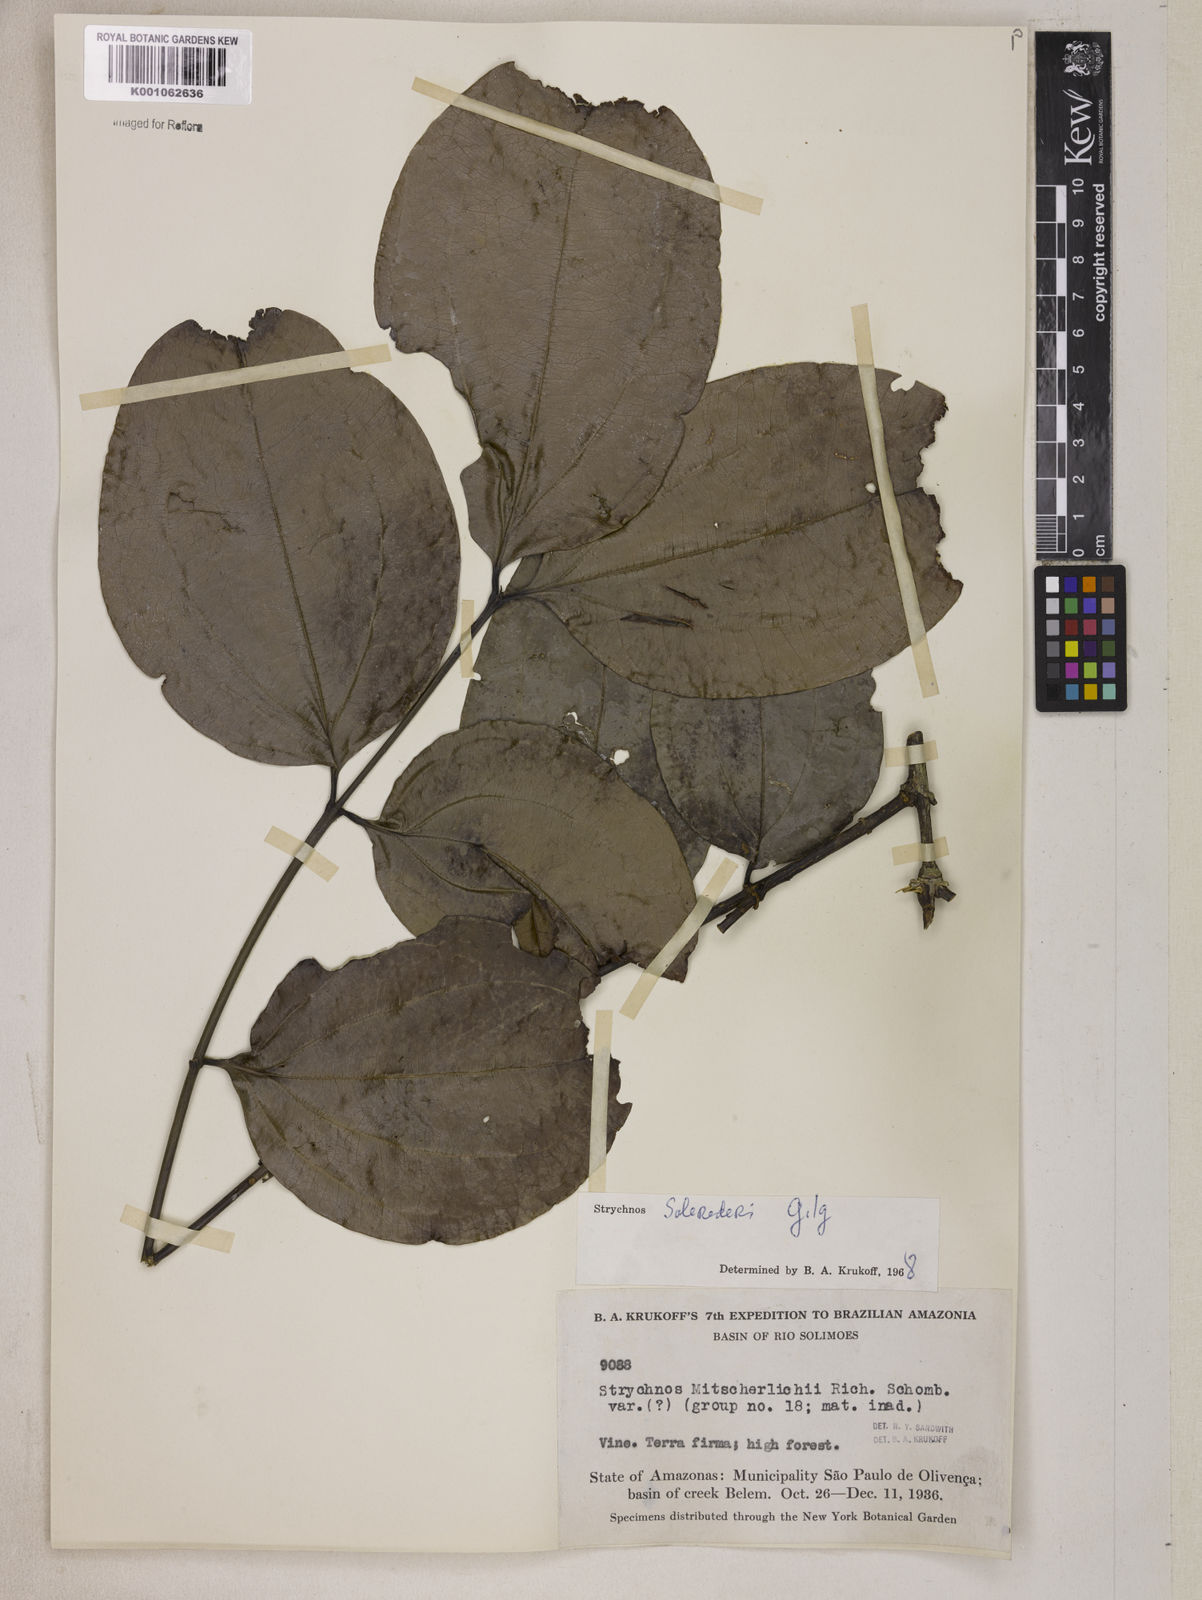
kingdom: Plantae
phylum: Tracheophyta
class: Magnoliopsida
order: Gentianales
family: Loganiaceae
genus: Strychnos
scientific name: Strychnos solerederi
